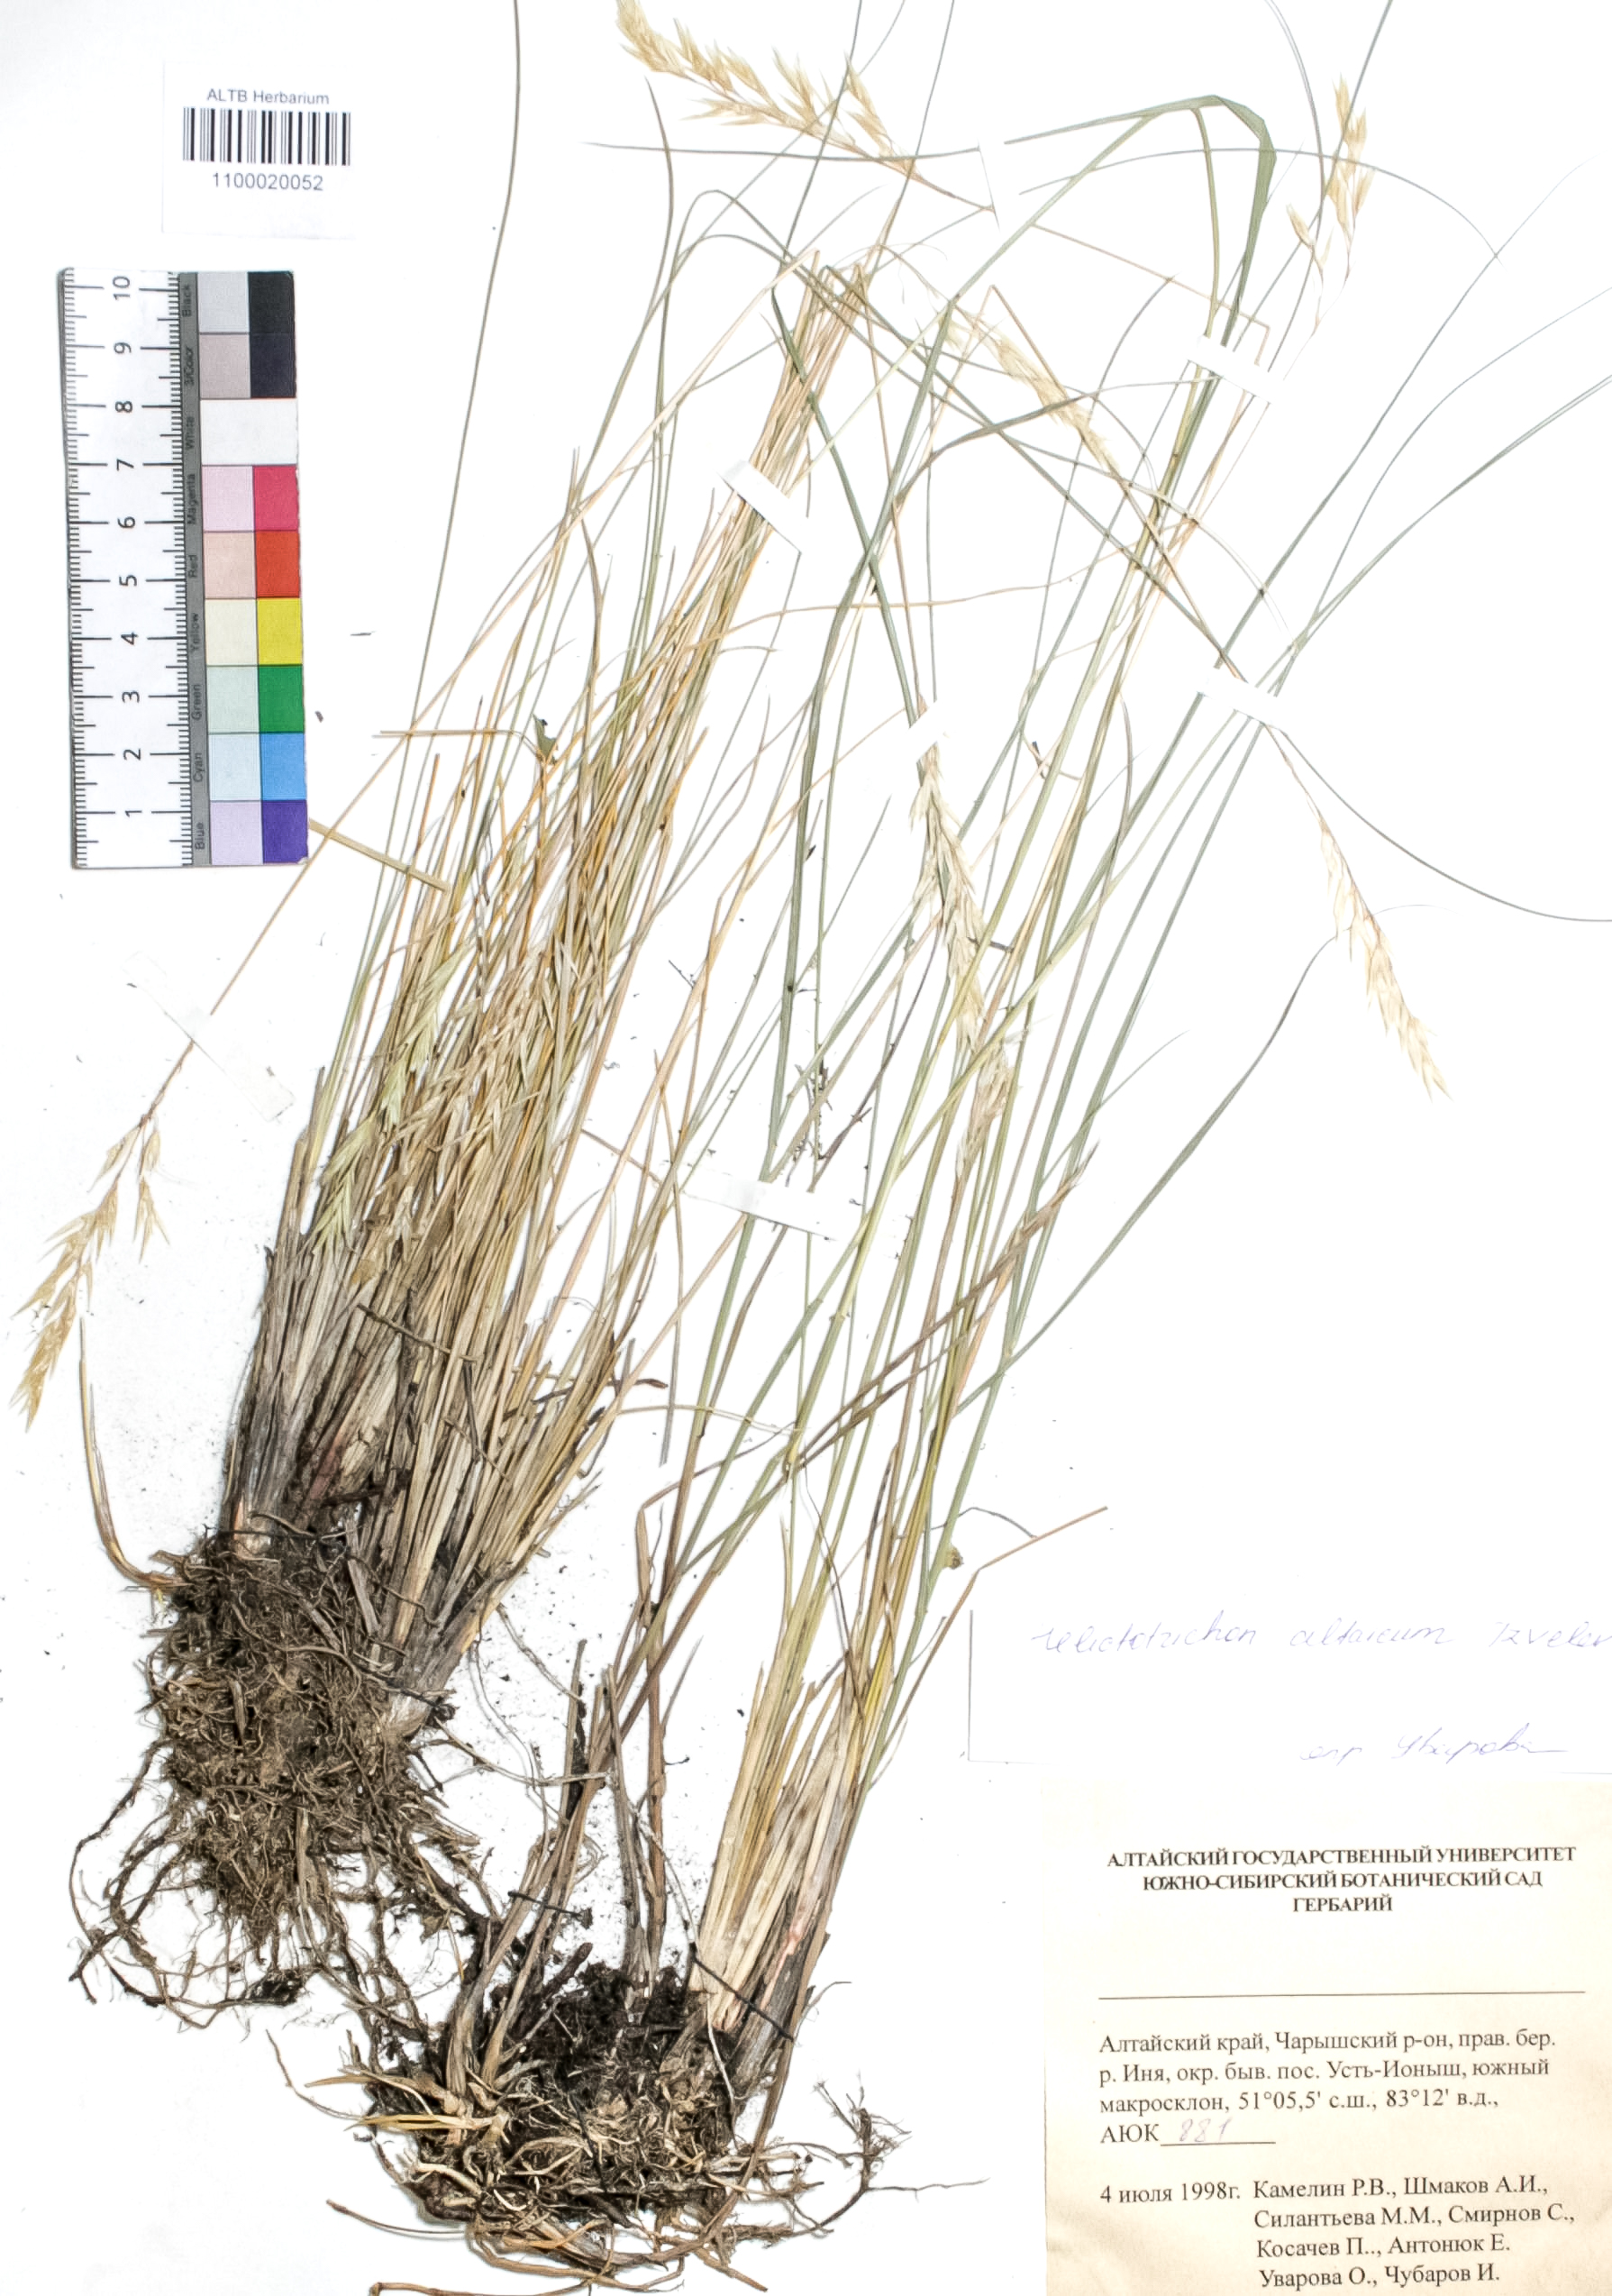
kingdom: Plantae
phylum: Tracheophyta
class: Liliopsida
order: Poales
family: Poaceae
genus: Helictotrichon
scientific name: Helictotrichon desertorum
